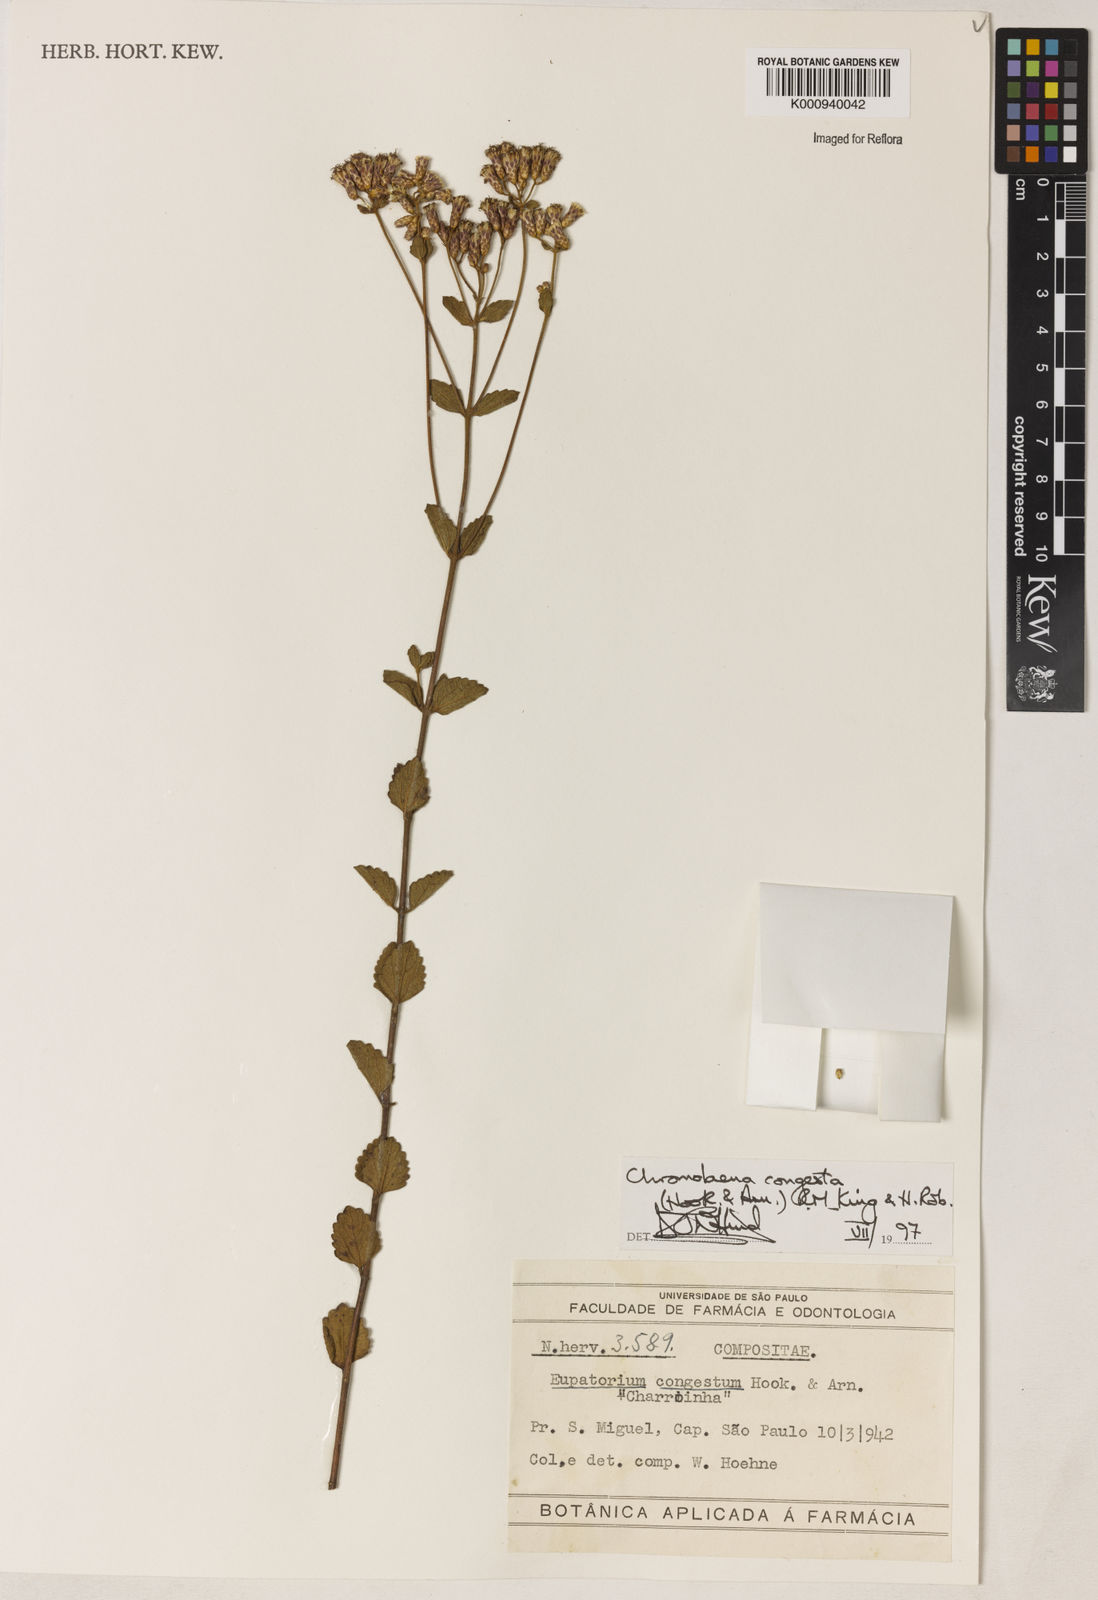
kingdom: Plantae
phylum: Tracheophyta
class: Magnoliopsida
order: Asterales
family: Asteraceae
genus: Chromolaena
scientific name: Chromolaena congesta
